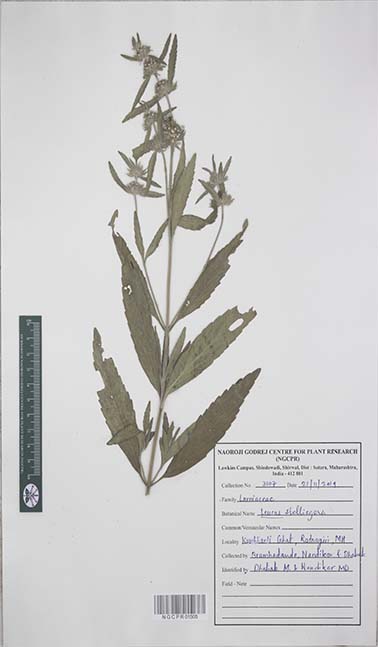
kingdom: Plantae
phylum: Tracheophyta
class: Magnoliopsida
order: Lamiales
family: Lamiaceae
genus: Leucas
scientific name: Leucas stelligera
